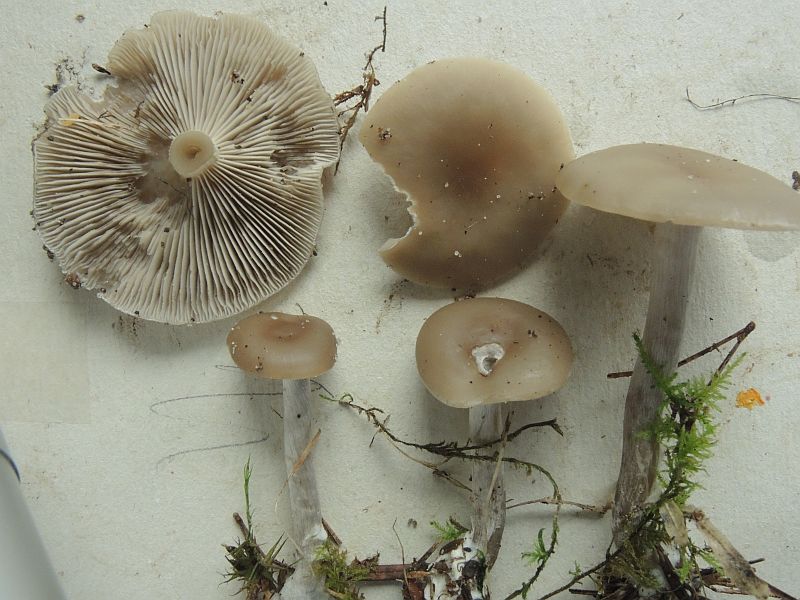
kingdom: Fungi
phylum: Basidiomycota
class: Agaricomycetes
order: Agaricales
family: Tricholomataceae
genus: Clitocybe
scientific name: Clitocybe metachroa
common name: grå tragthat
